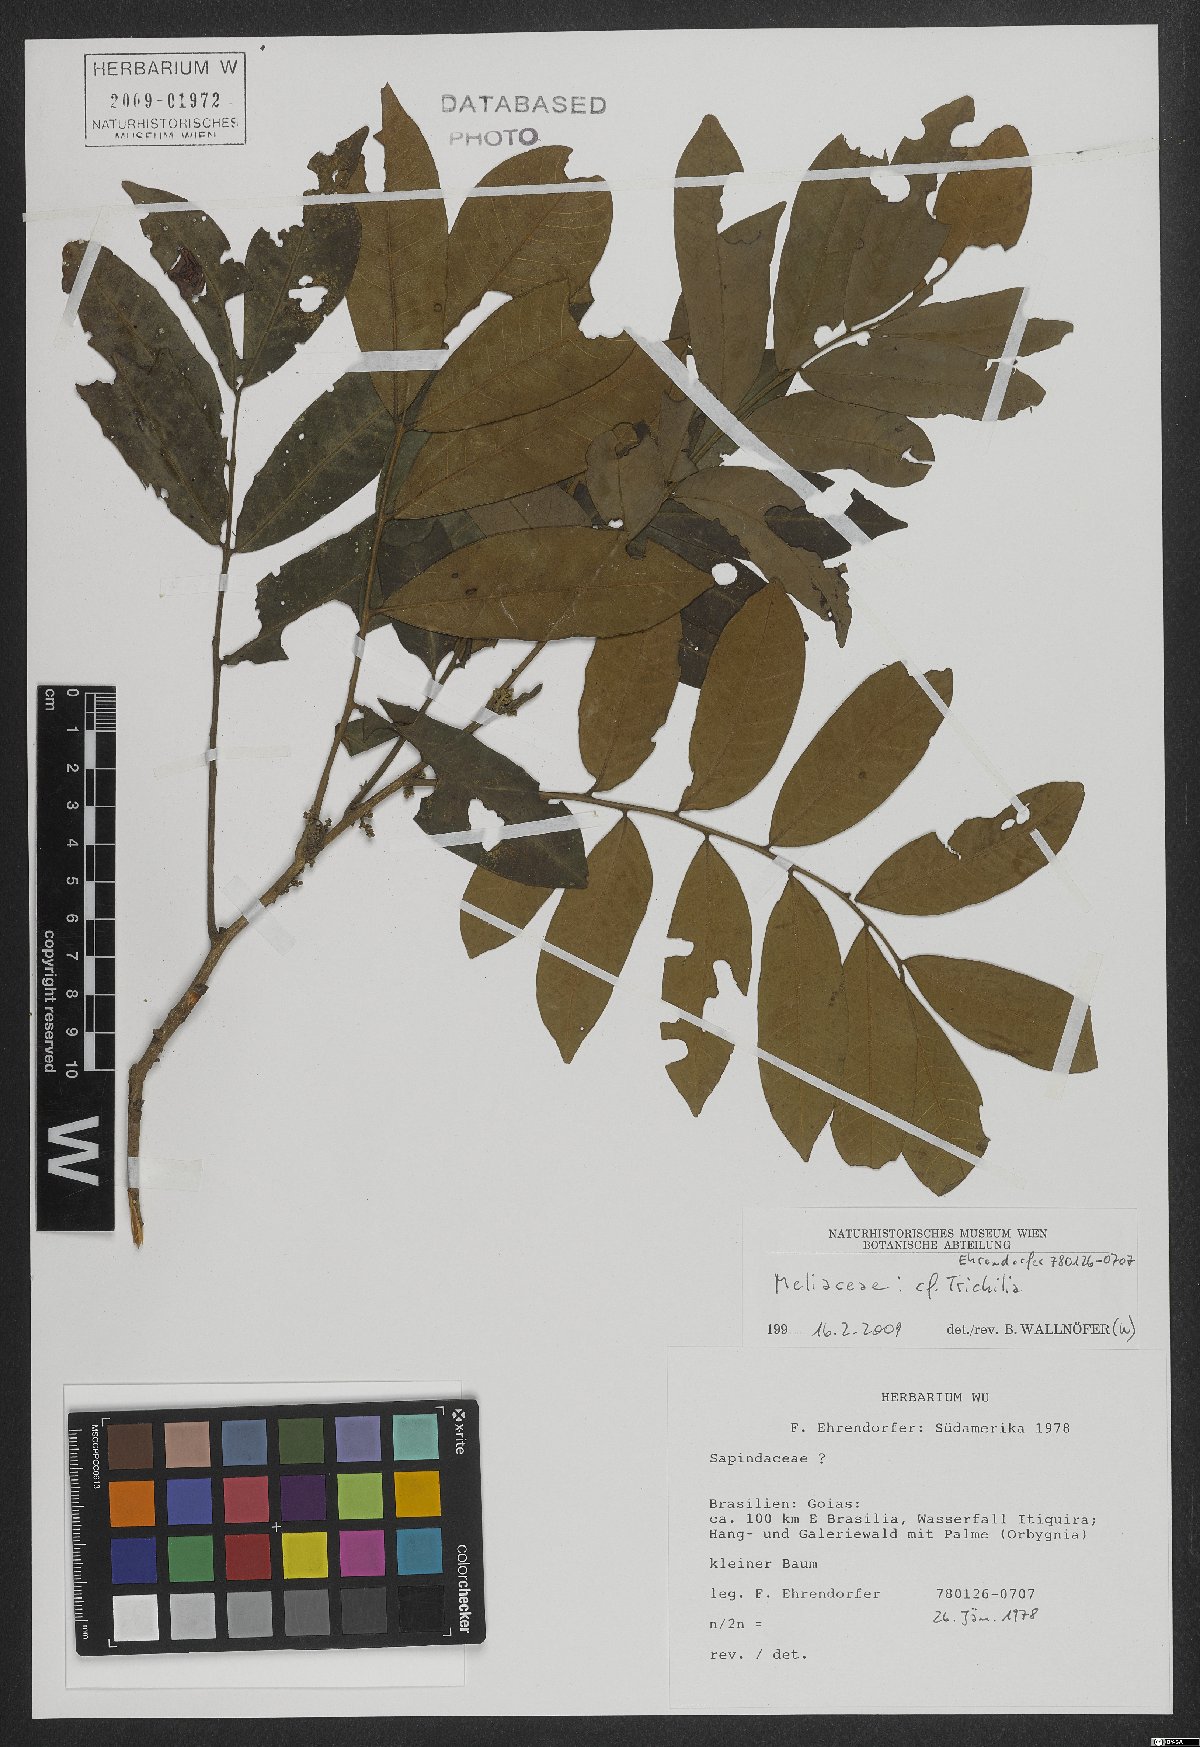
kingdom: Plantae
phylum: Tracheophyta
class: Magnoliopsida
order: Sapindales
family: Meliaceae
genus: Trichilia
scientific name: Trichilia
